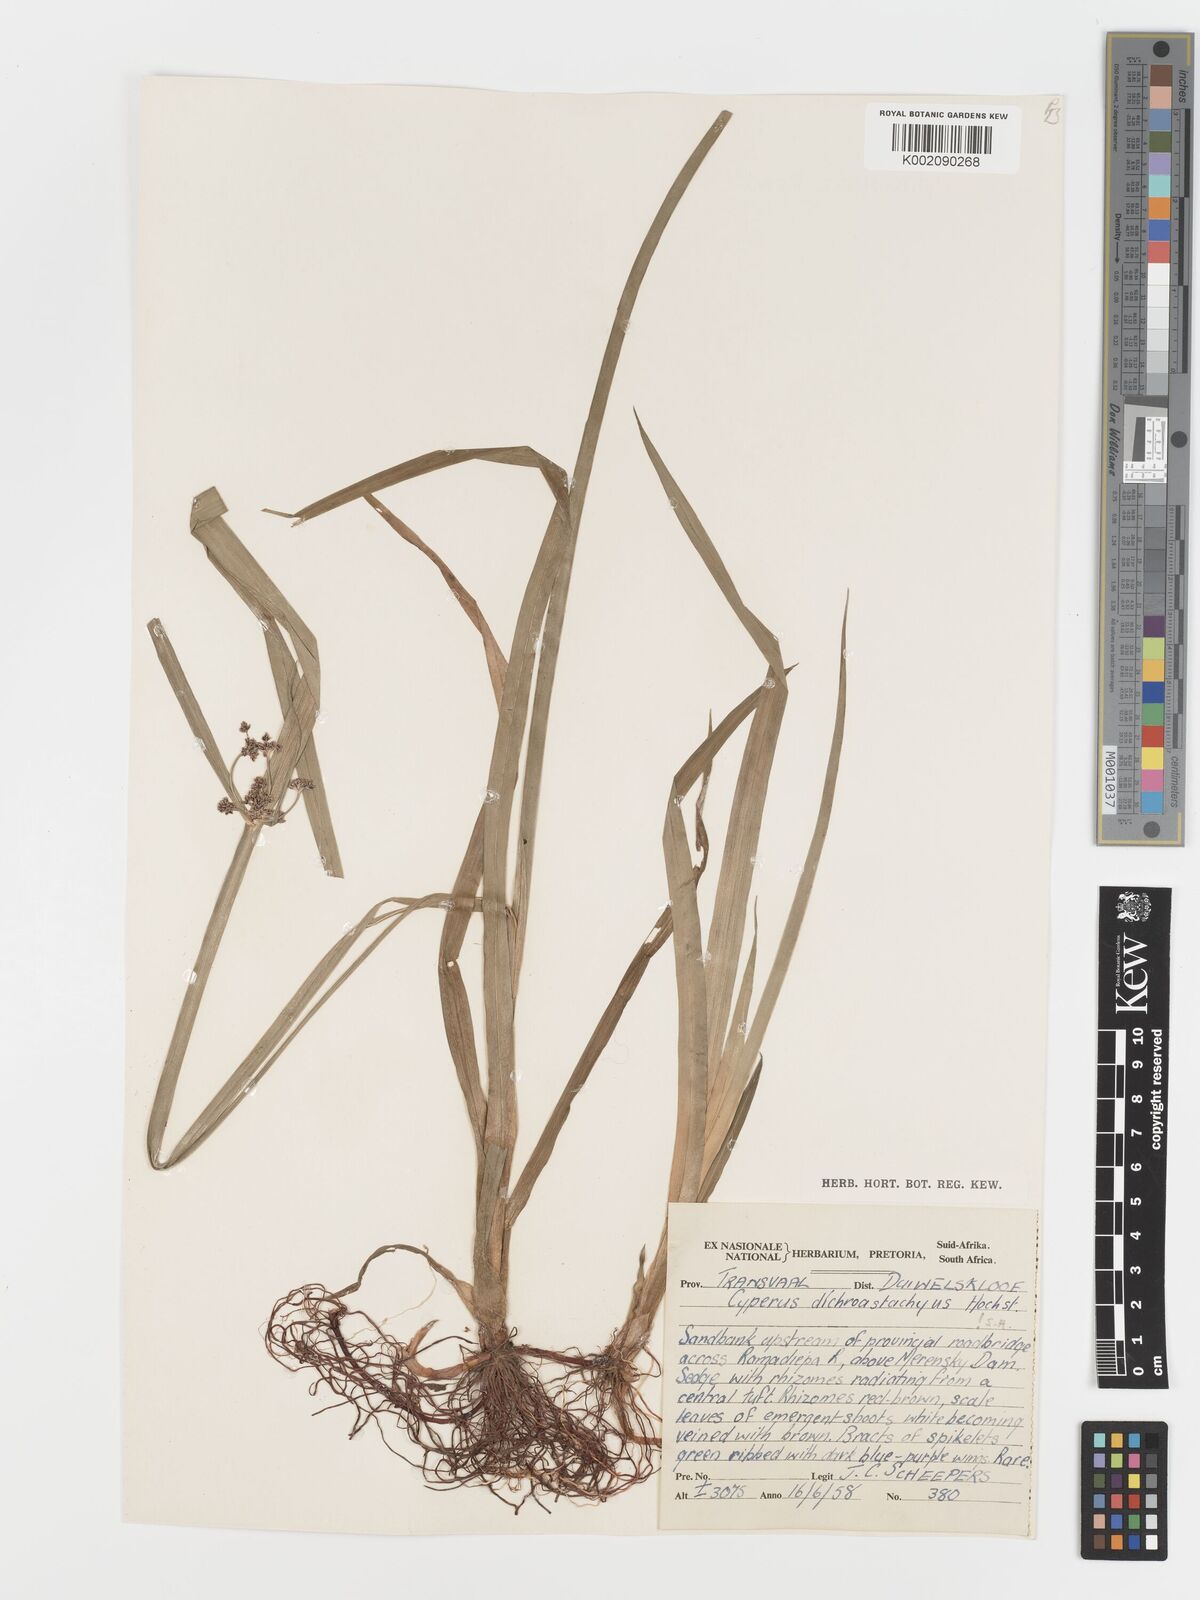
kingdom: Plantae
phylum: Tracheophyta
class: Liliopsida
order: Poales
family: Cyperaceae
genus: Cyperus
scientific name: Cyperus dichrostachyus
